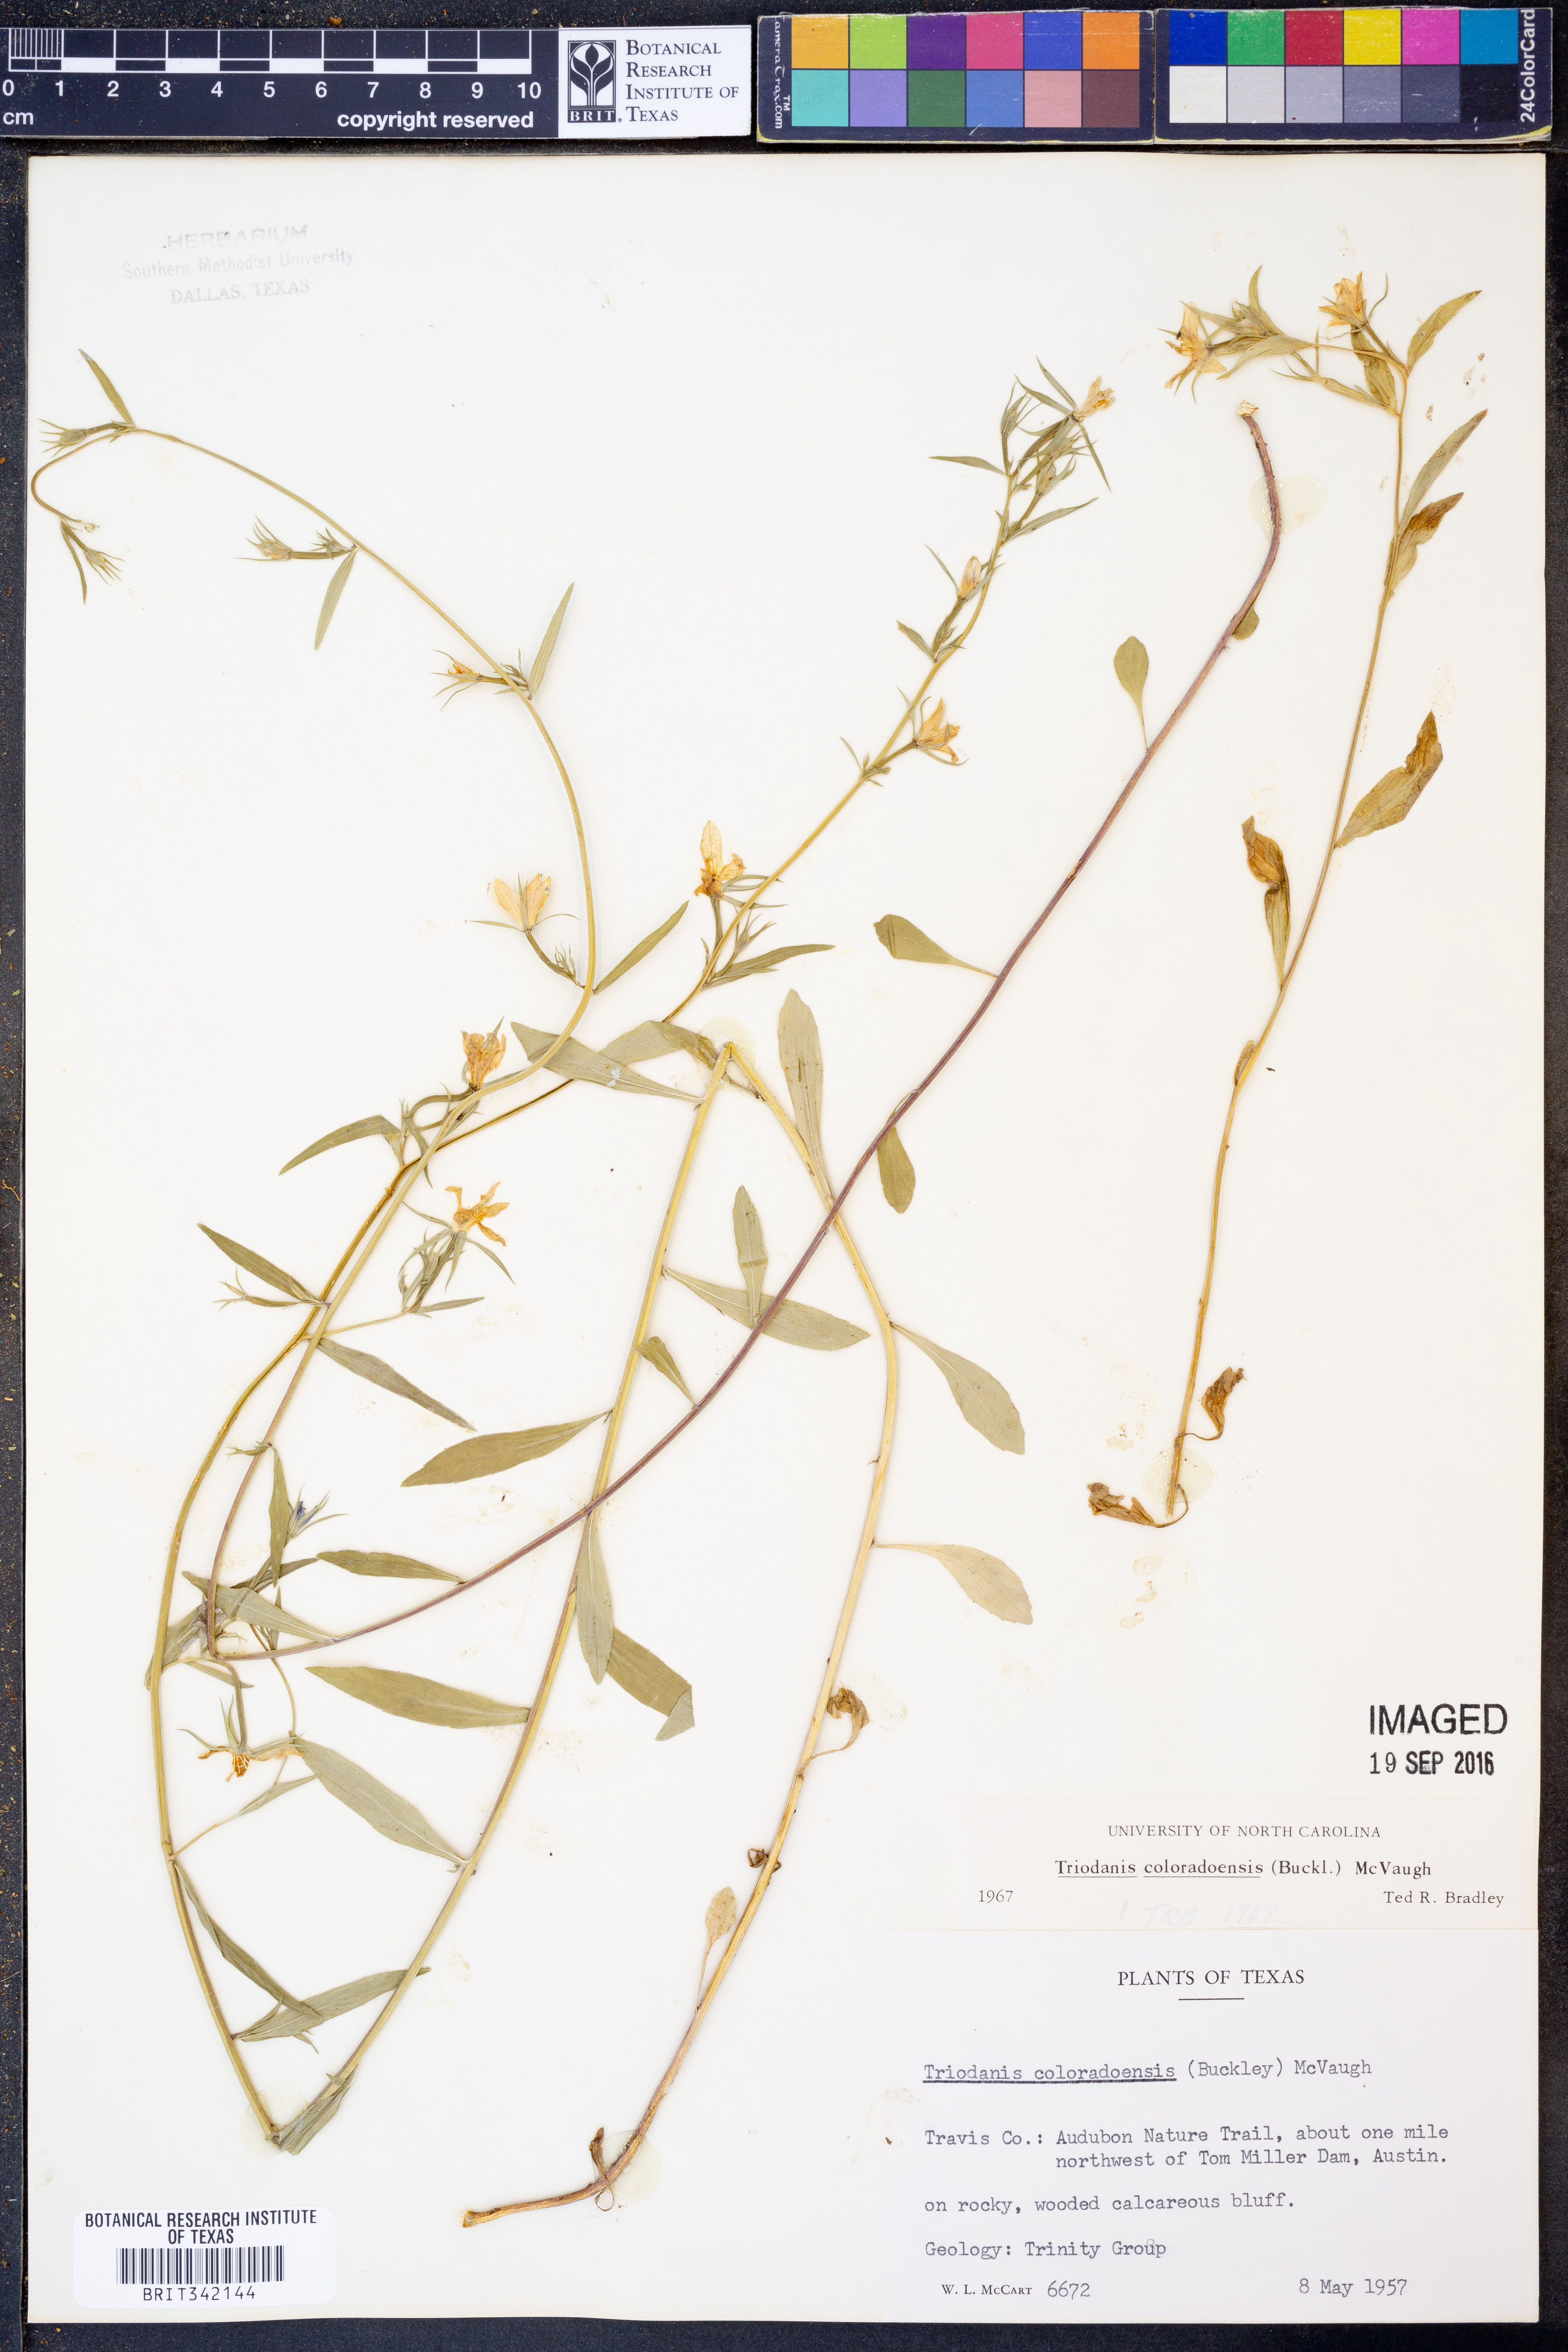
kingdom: Plantae
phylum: Tracheophyta
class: Magnoliopsida
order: Asterales
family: Campanulaceae
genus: Triodanis
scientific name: Triodanis coloradoensis
